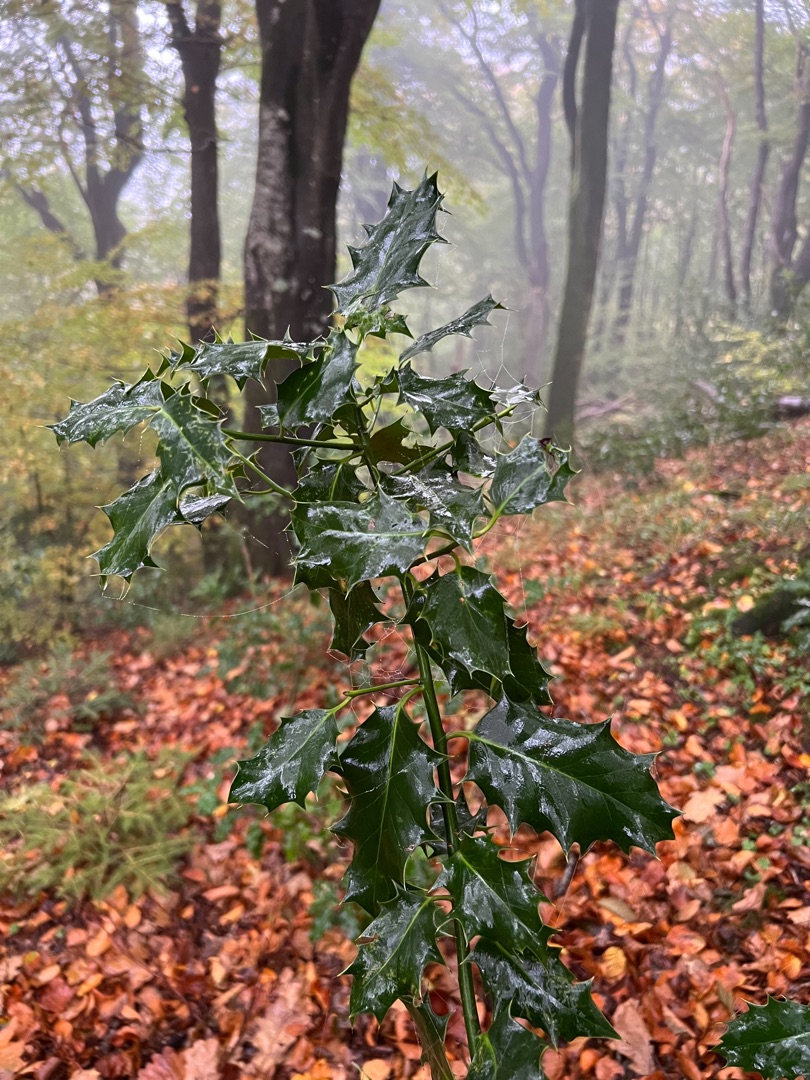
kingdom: Plantae
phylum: Tracheophyta
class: Magnoliopsida
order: Aquifoliales
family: Aquifoliaceae
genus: Ilex
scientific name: Ilex aquifolium
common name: Kristtorn
